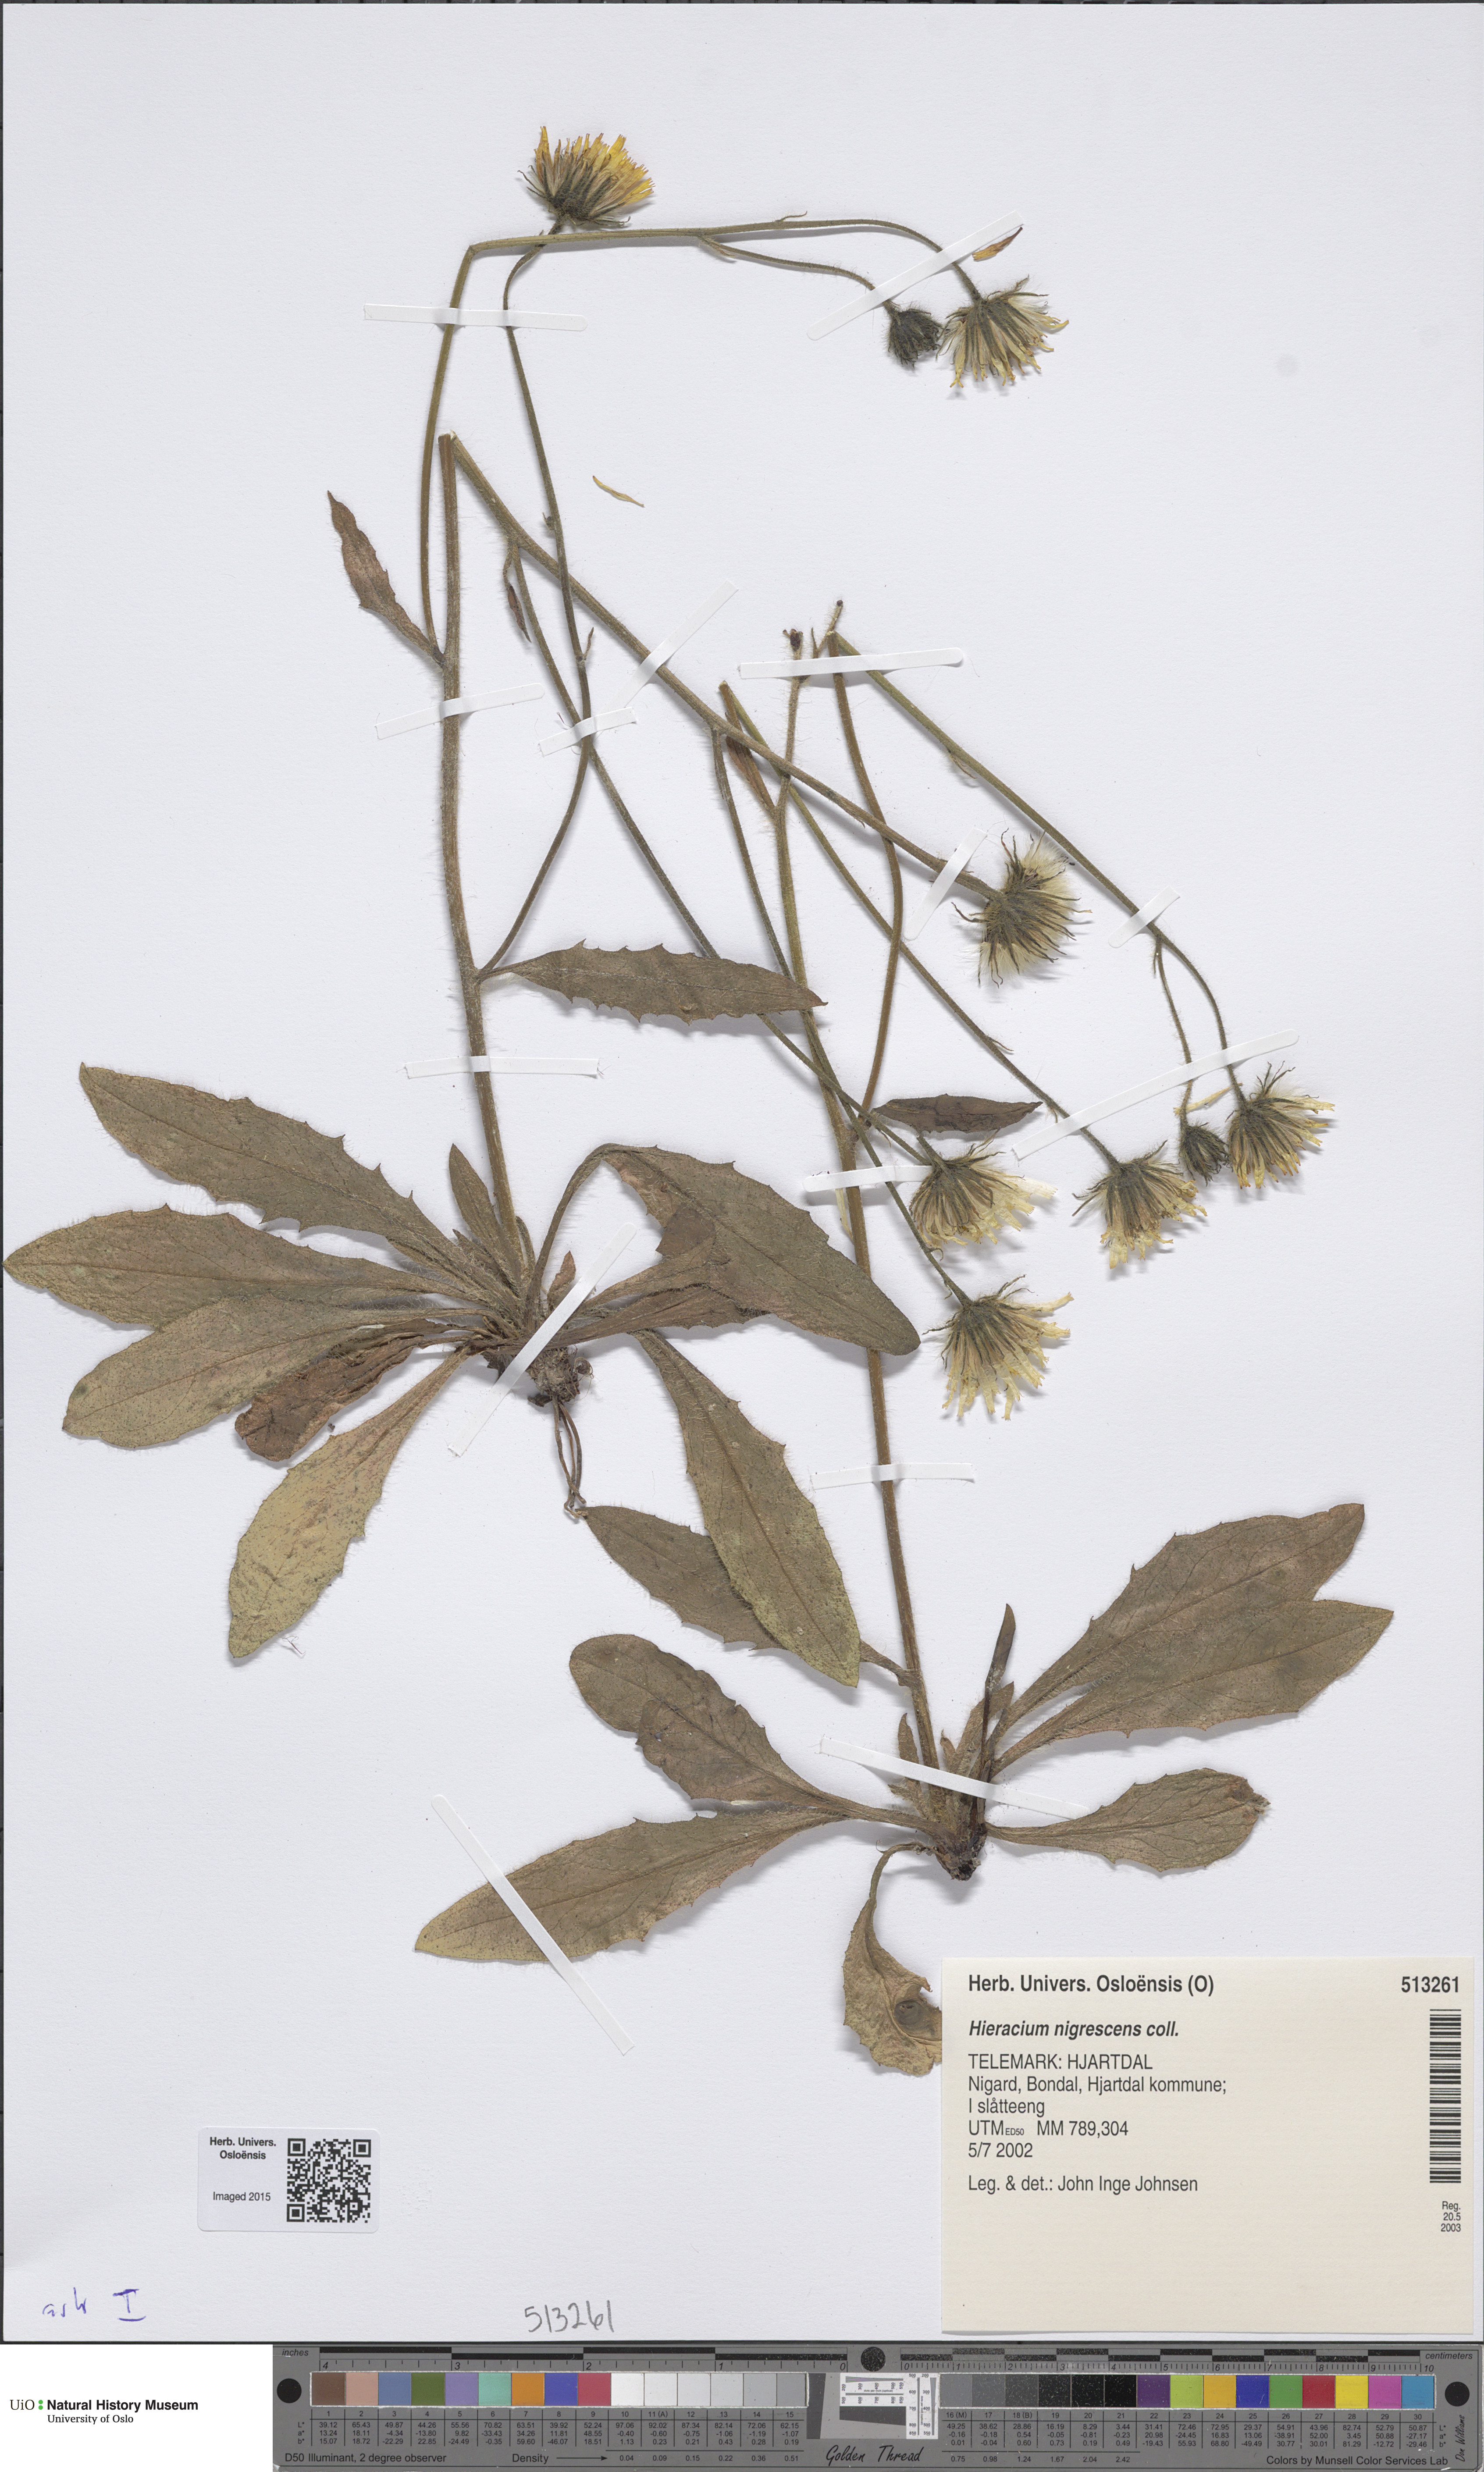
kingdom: Plantae
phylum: Tracheophyta
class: Magnoliopsida
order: Asterales
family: Asteraceae
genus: Hieracium
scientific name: Hieracium nigrescens
